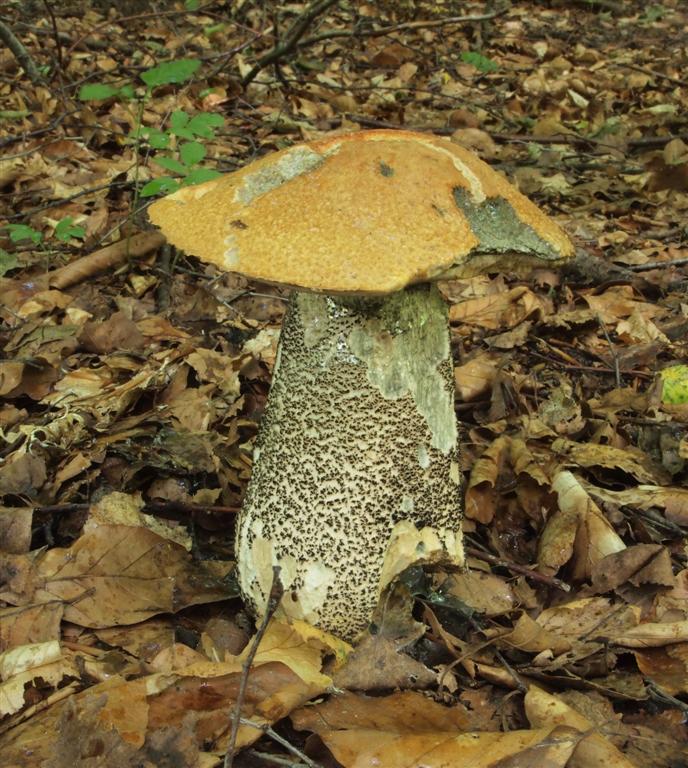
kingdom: Fungi
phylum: Basidiomycota
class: Agaricomycetes
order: Boletales
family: Boletaceae
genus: Leccinum
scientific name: Leccinum versipelle
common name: orange skælrørhat
